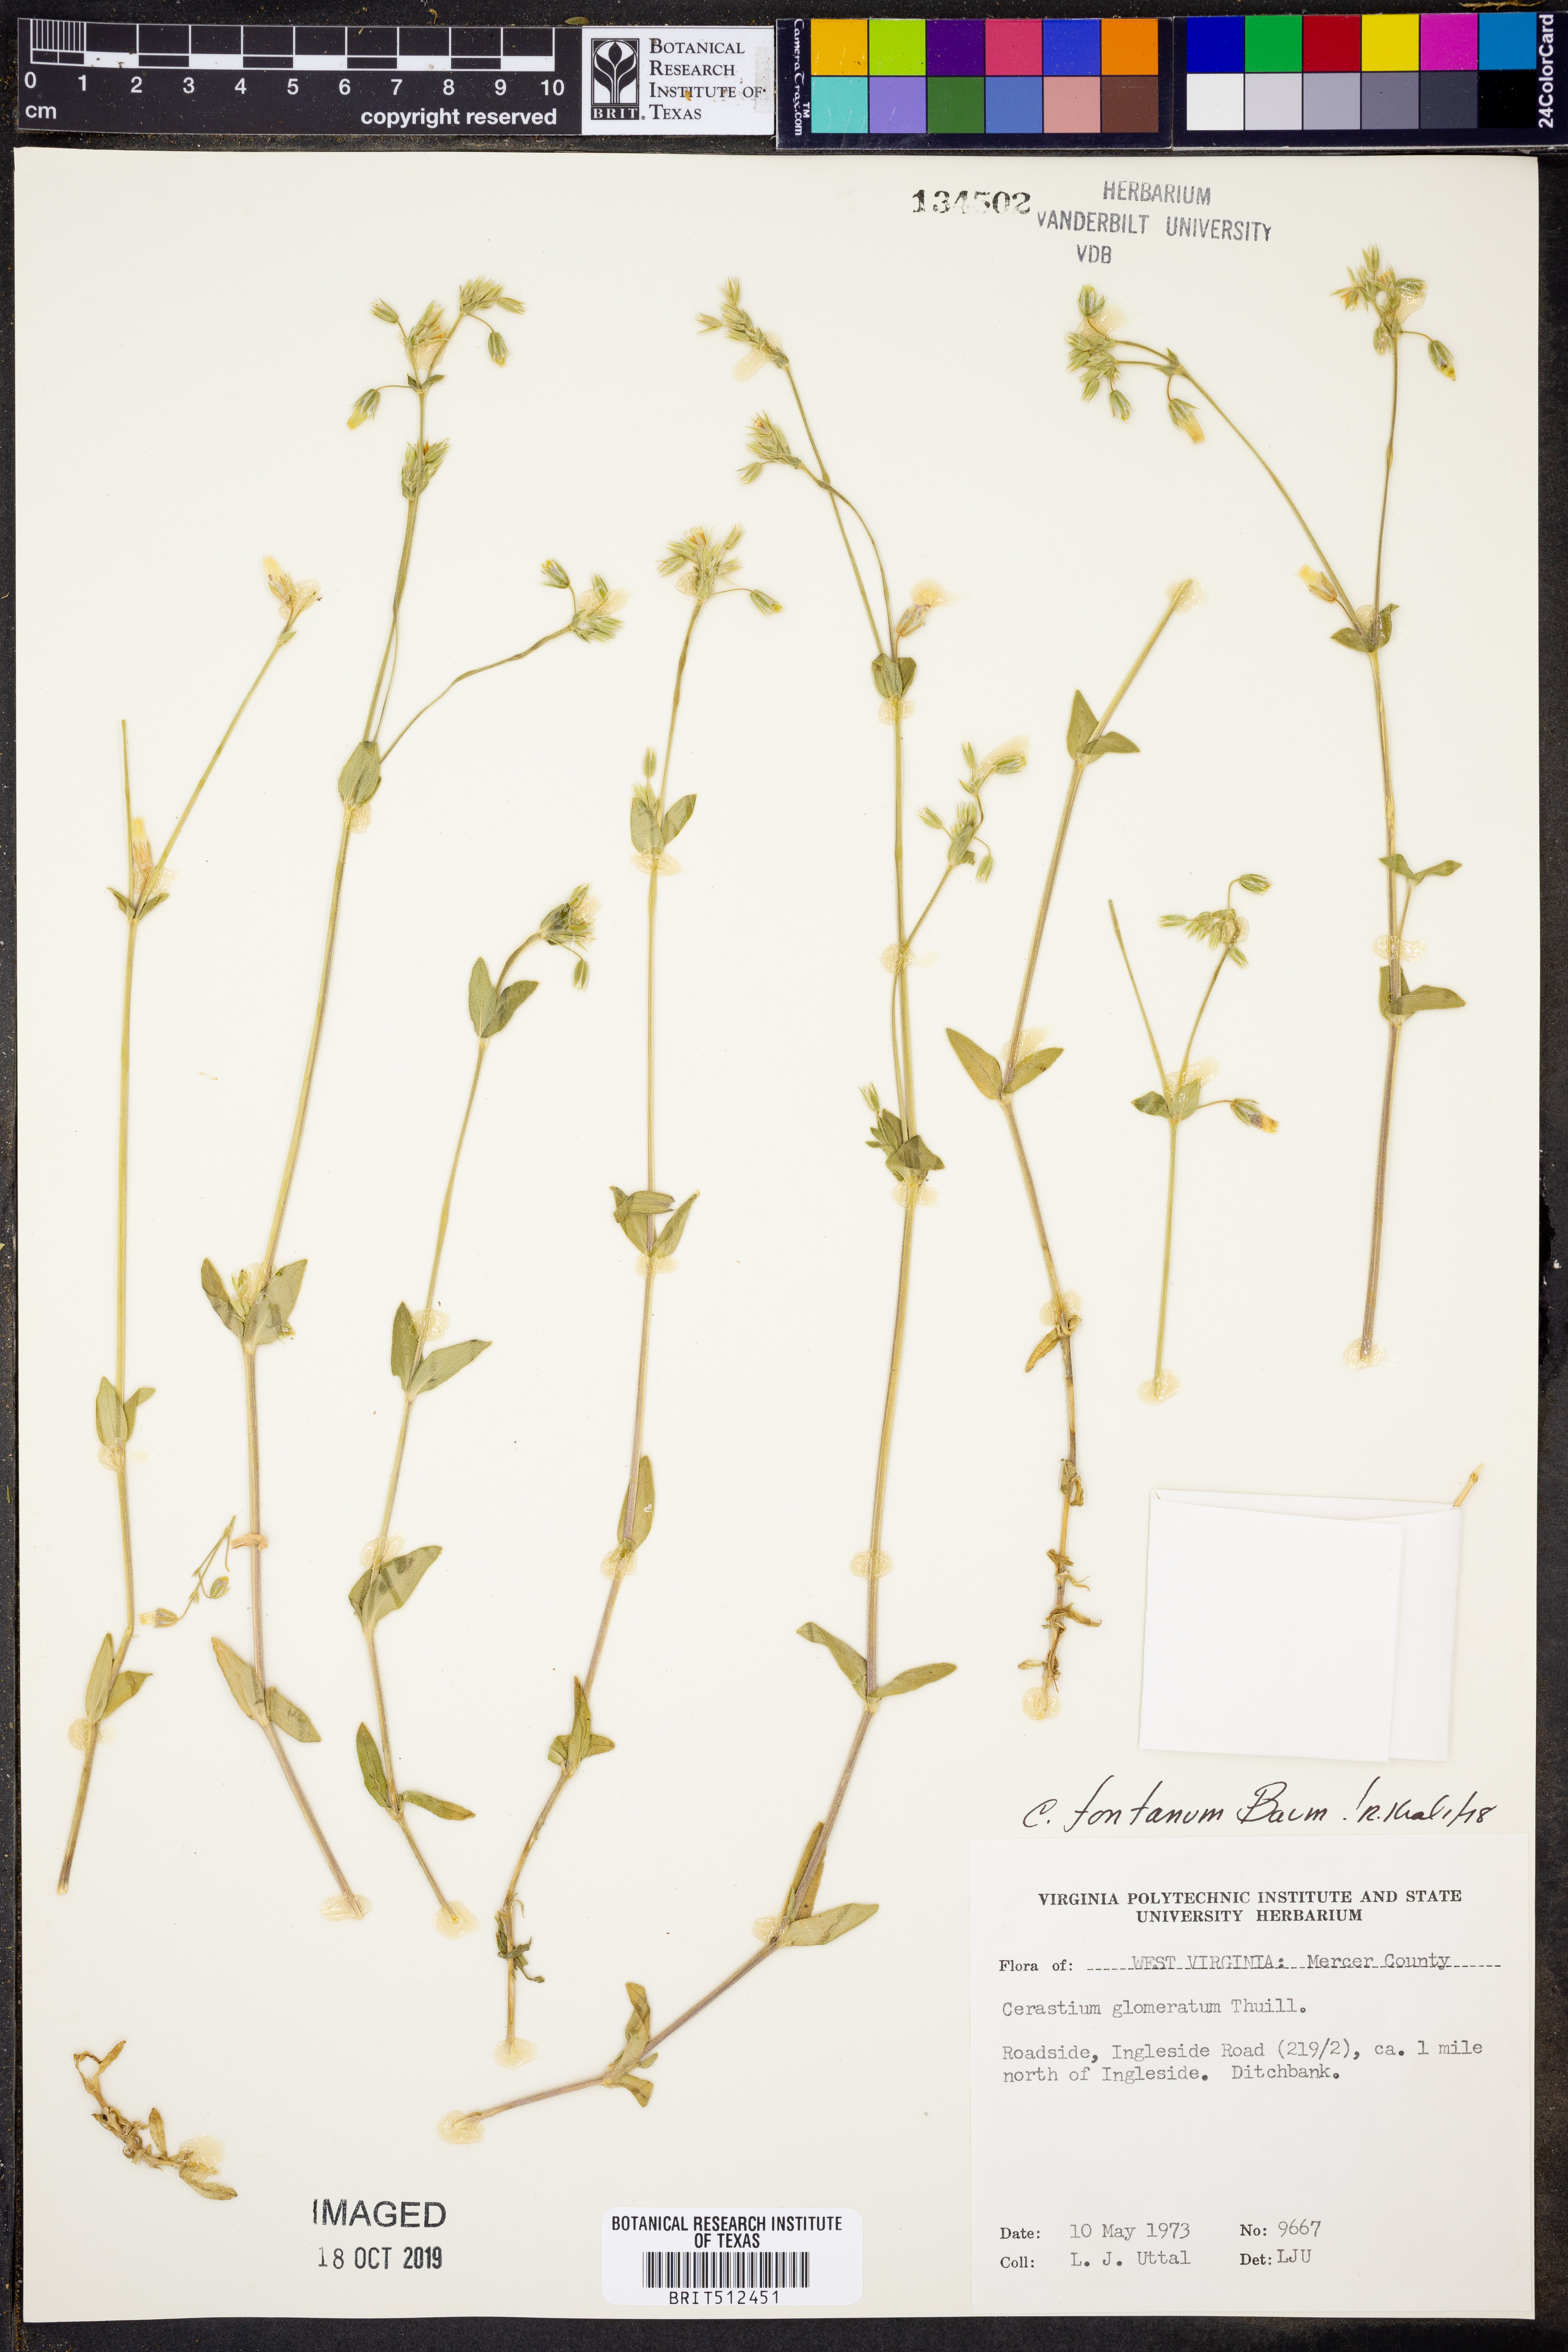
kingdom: Plantae
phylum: Tracheophyta
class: Magnoliopsida
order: Caryophyllales
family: Caryophyllaceae
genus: Cerastium
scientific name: Cerastium fontanum
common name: Common mouse-ear
